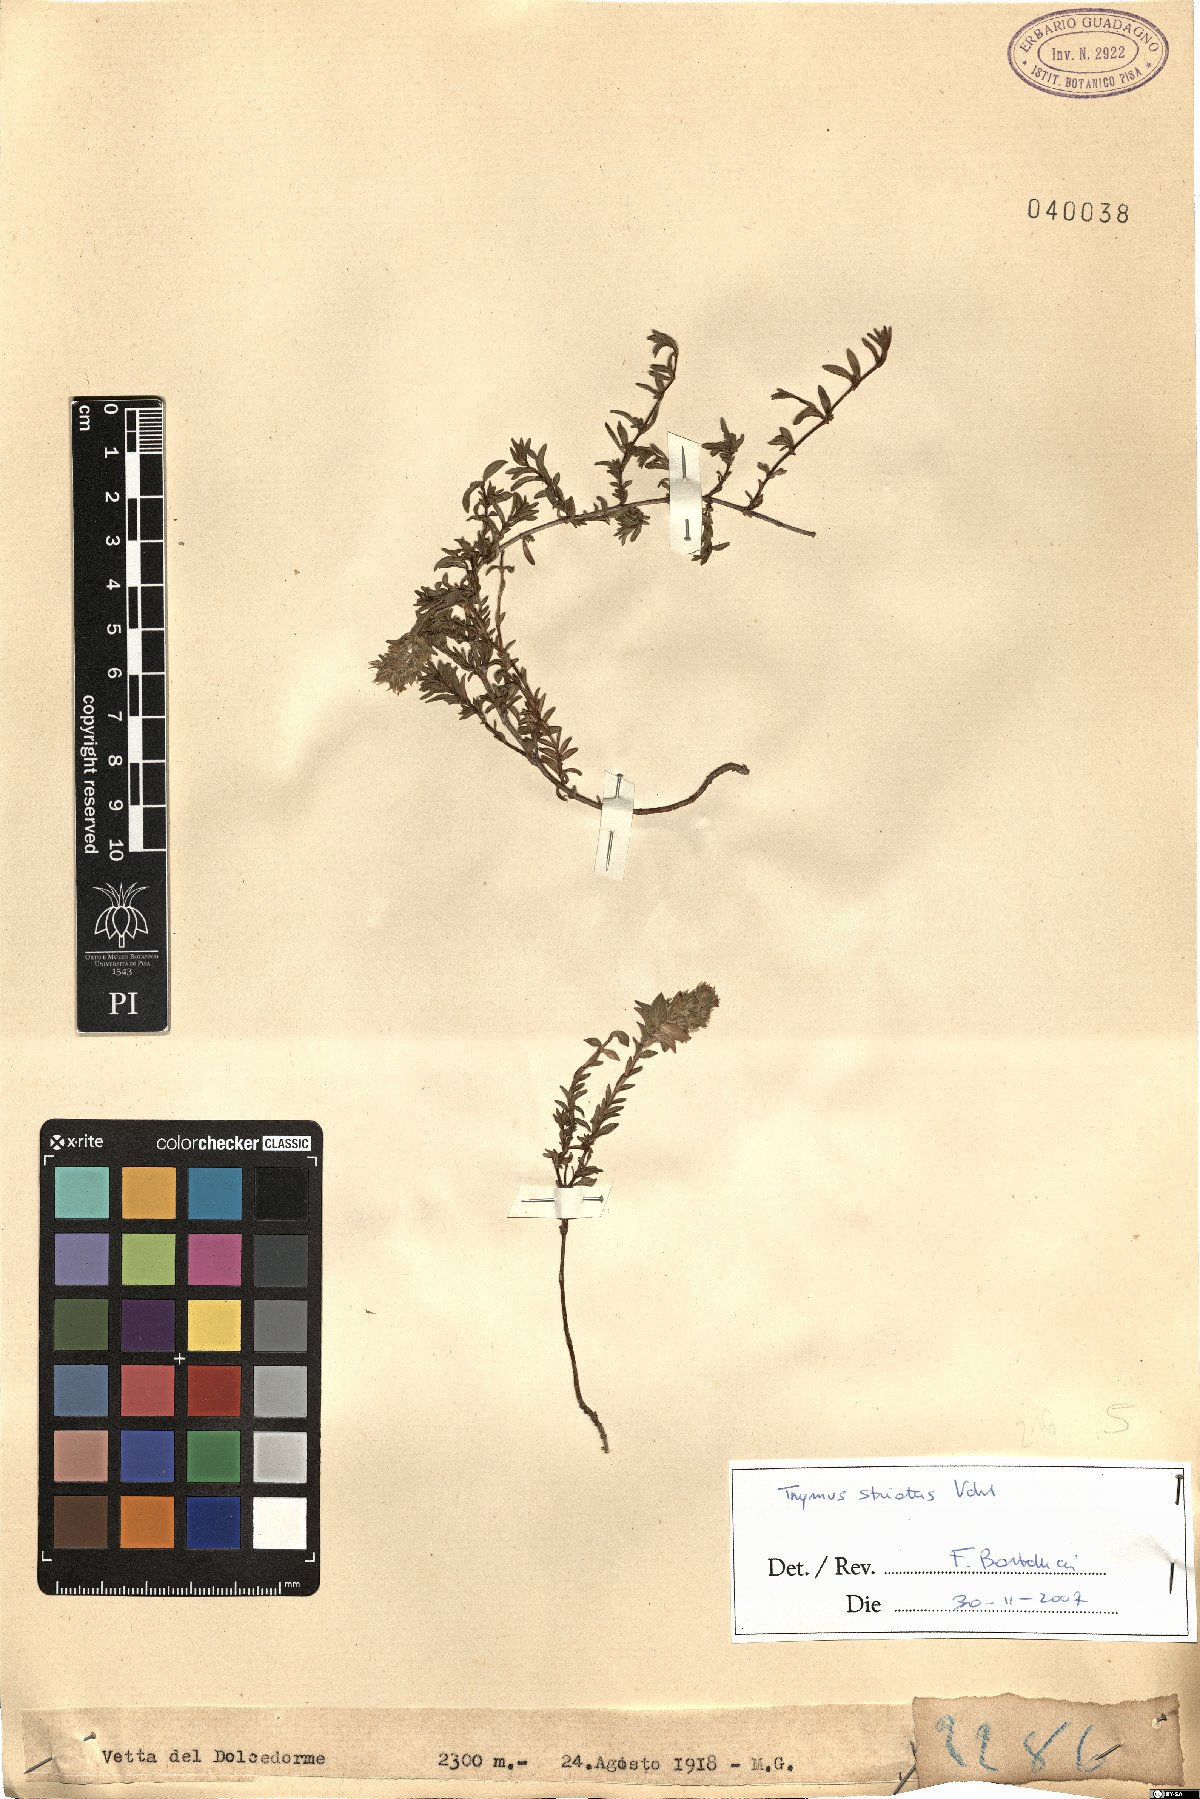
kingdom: Plantae
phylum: Tracheophyta
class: Magnoliopsida
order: Lamiales
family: Lamiaceae
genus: Thymus
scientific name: Thymus striatus
